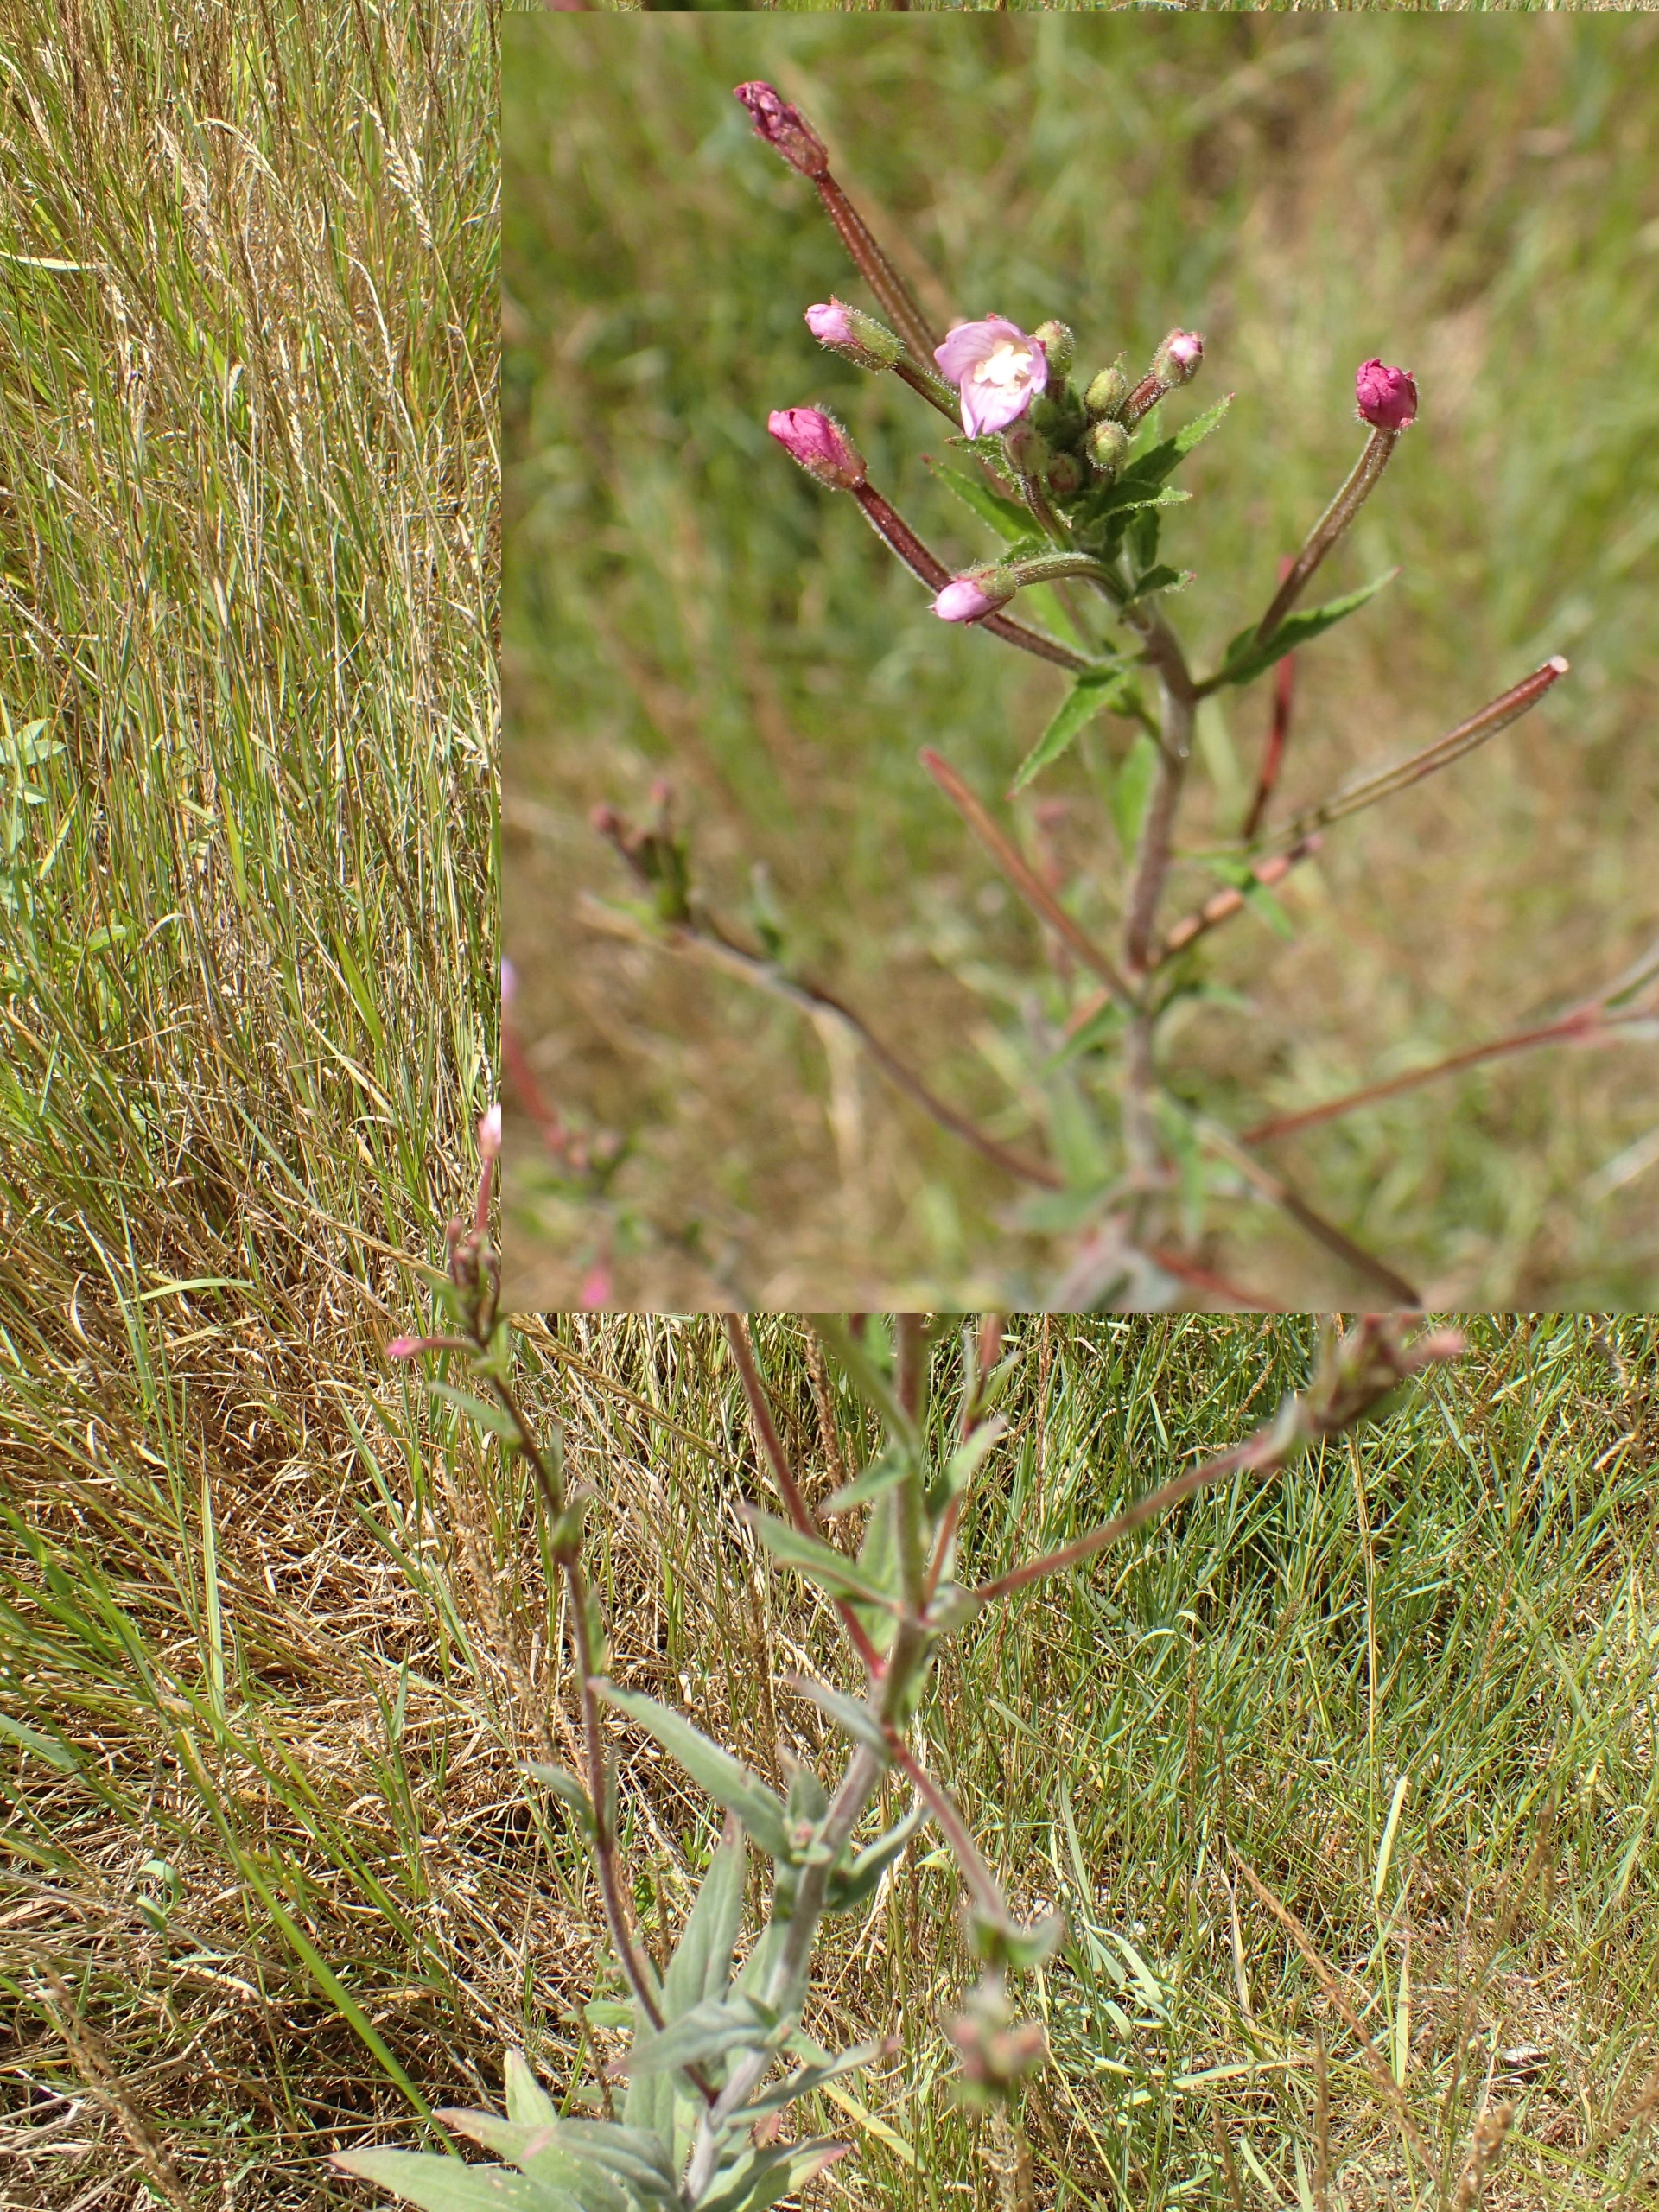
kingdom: Plantae
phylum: Tracheophyta
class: Magnoliopsida
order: Myrtales
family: Onagraceae
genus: Epilobium
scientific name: Epilobium parviflorum
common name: Dunet dueurt
